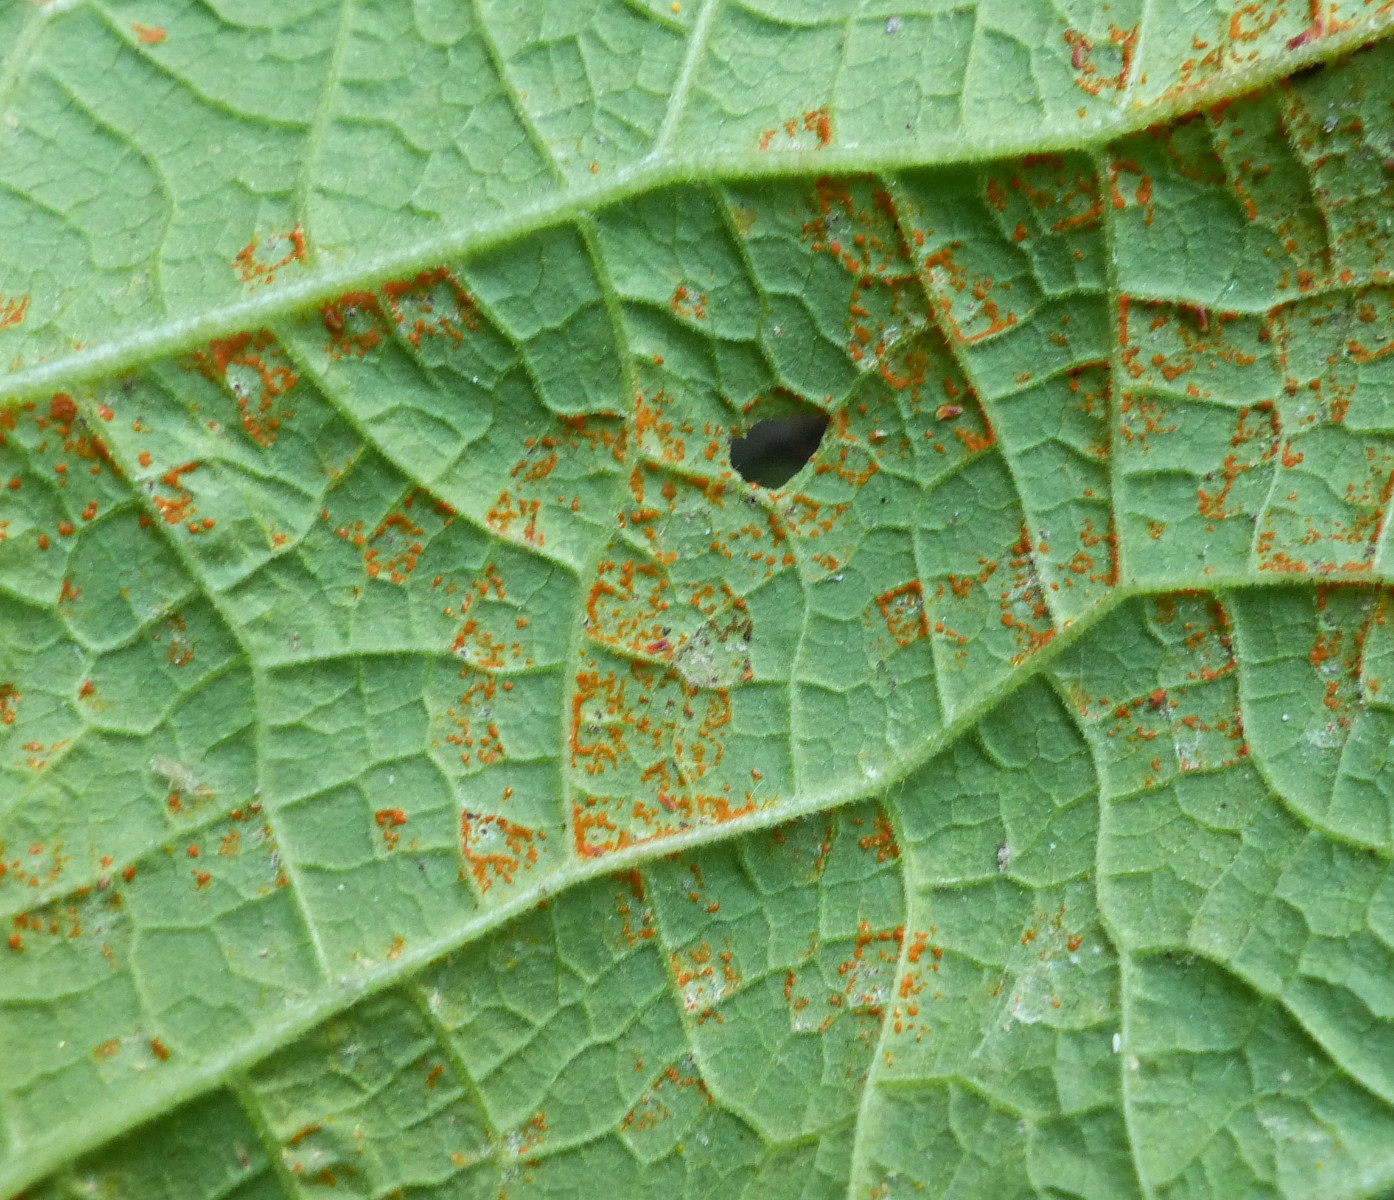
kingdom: Fungi
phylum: Basidiomycota
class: Pucciniomycetes
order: Pucciniales
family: Coleosporiaceae
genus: Coleosporium
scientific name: Coleosporium telekiae
